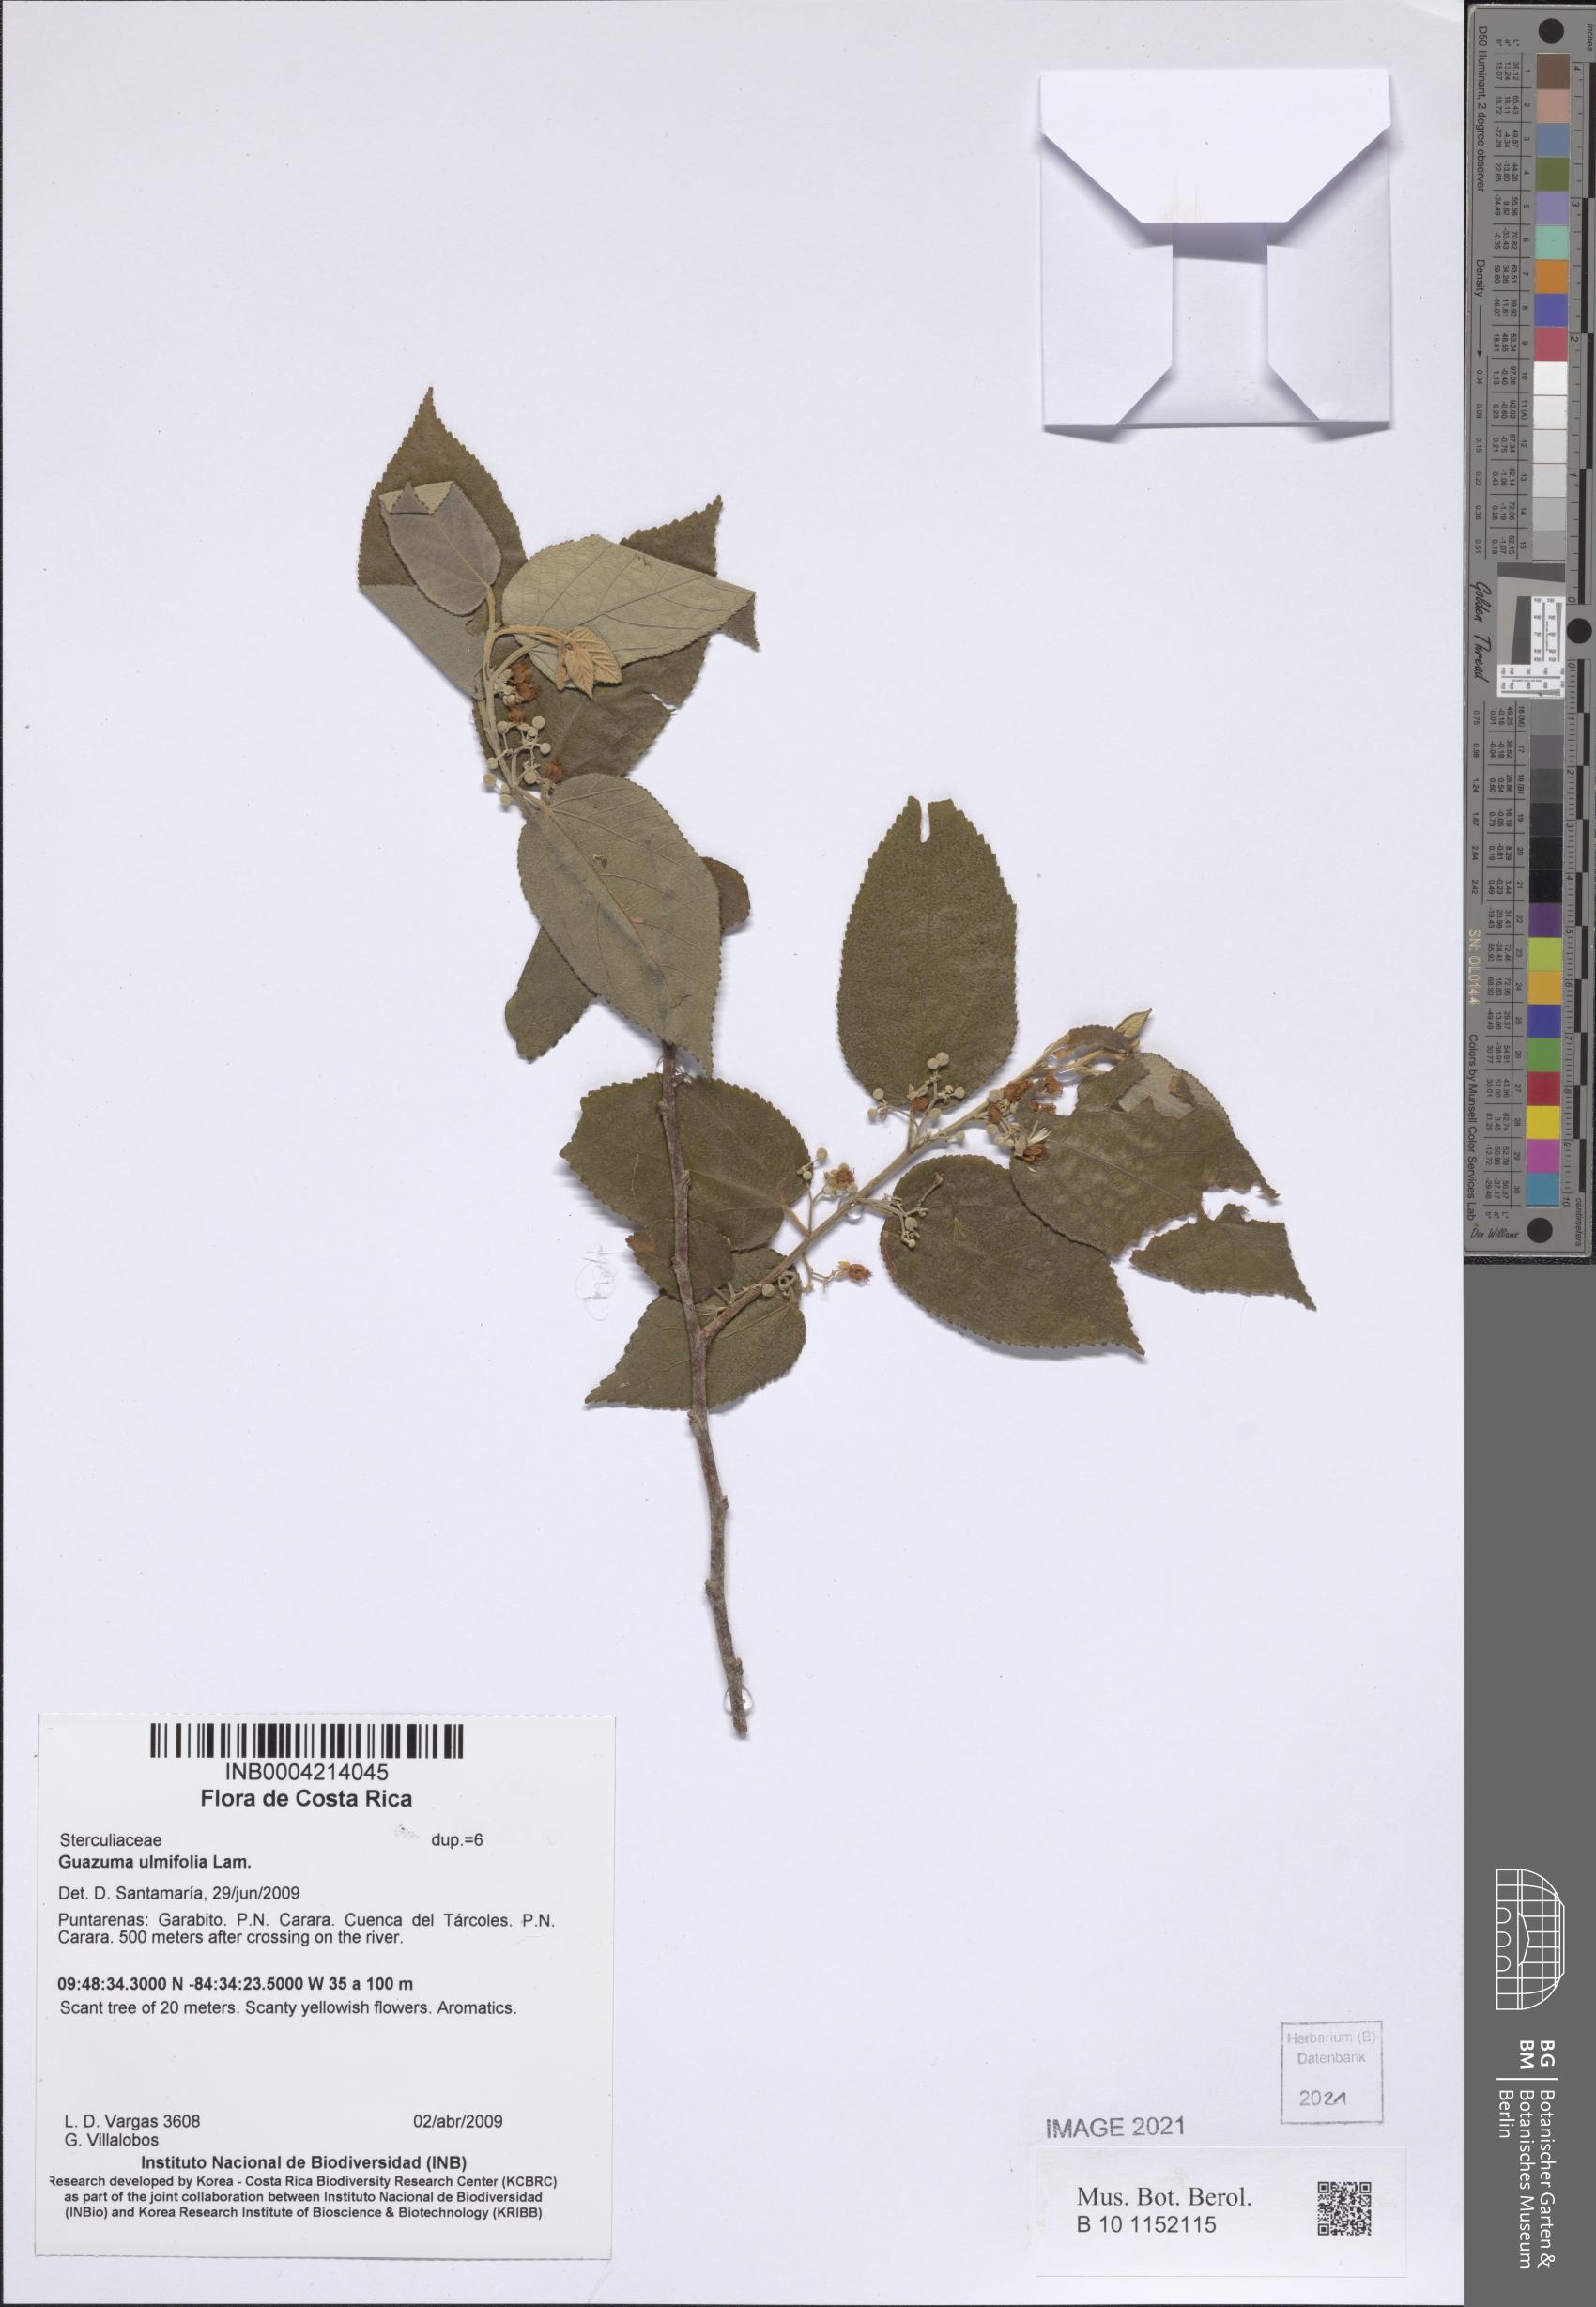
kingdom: Plantae
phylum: Tracheophyta
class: Magnoliopsida
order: Malvales
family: Malvaceae
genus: Guazuma
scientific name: Guazuma ulmifolia
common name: Bastard-cedar
